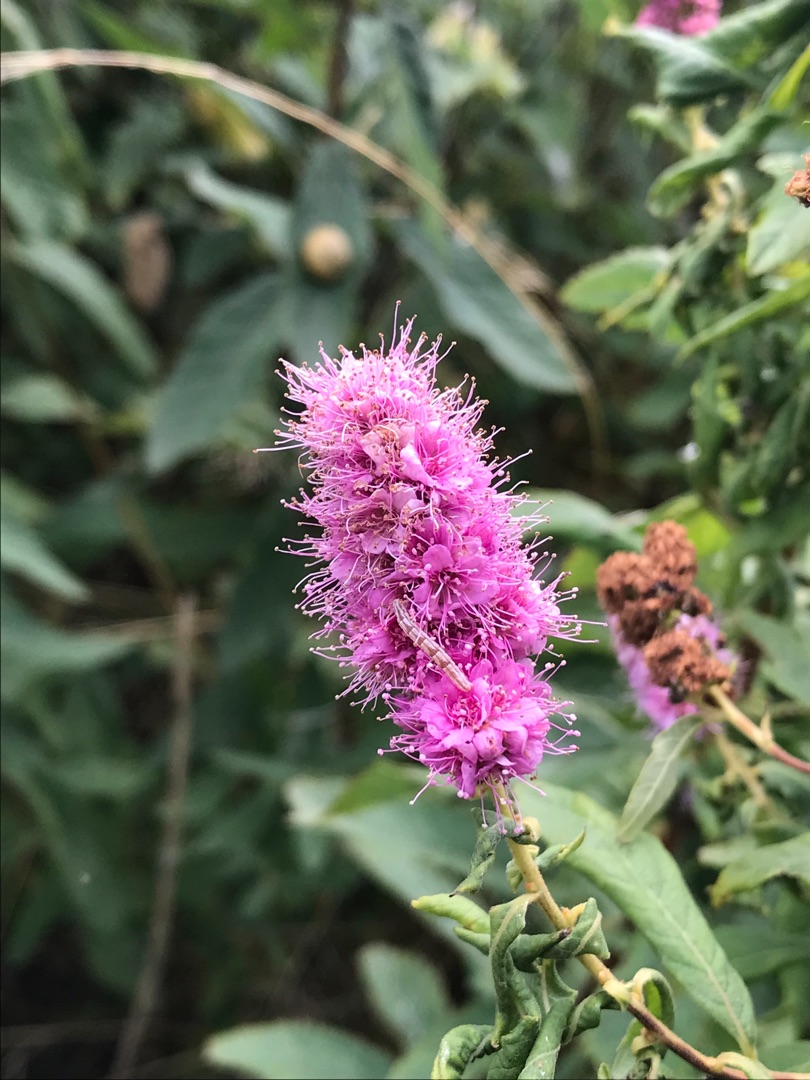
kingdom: Plantae
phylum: Tracheophyta
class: Magnoliopsida
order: Rosales
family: Rosaceae
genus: Spiraea
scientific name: Spiraea
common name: Spiræaslægten
